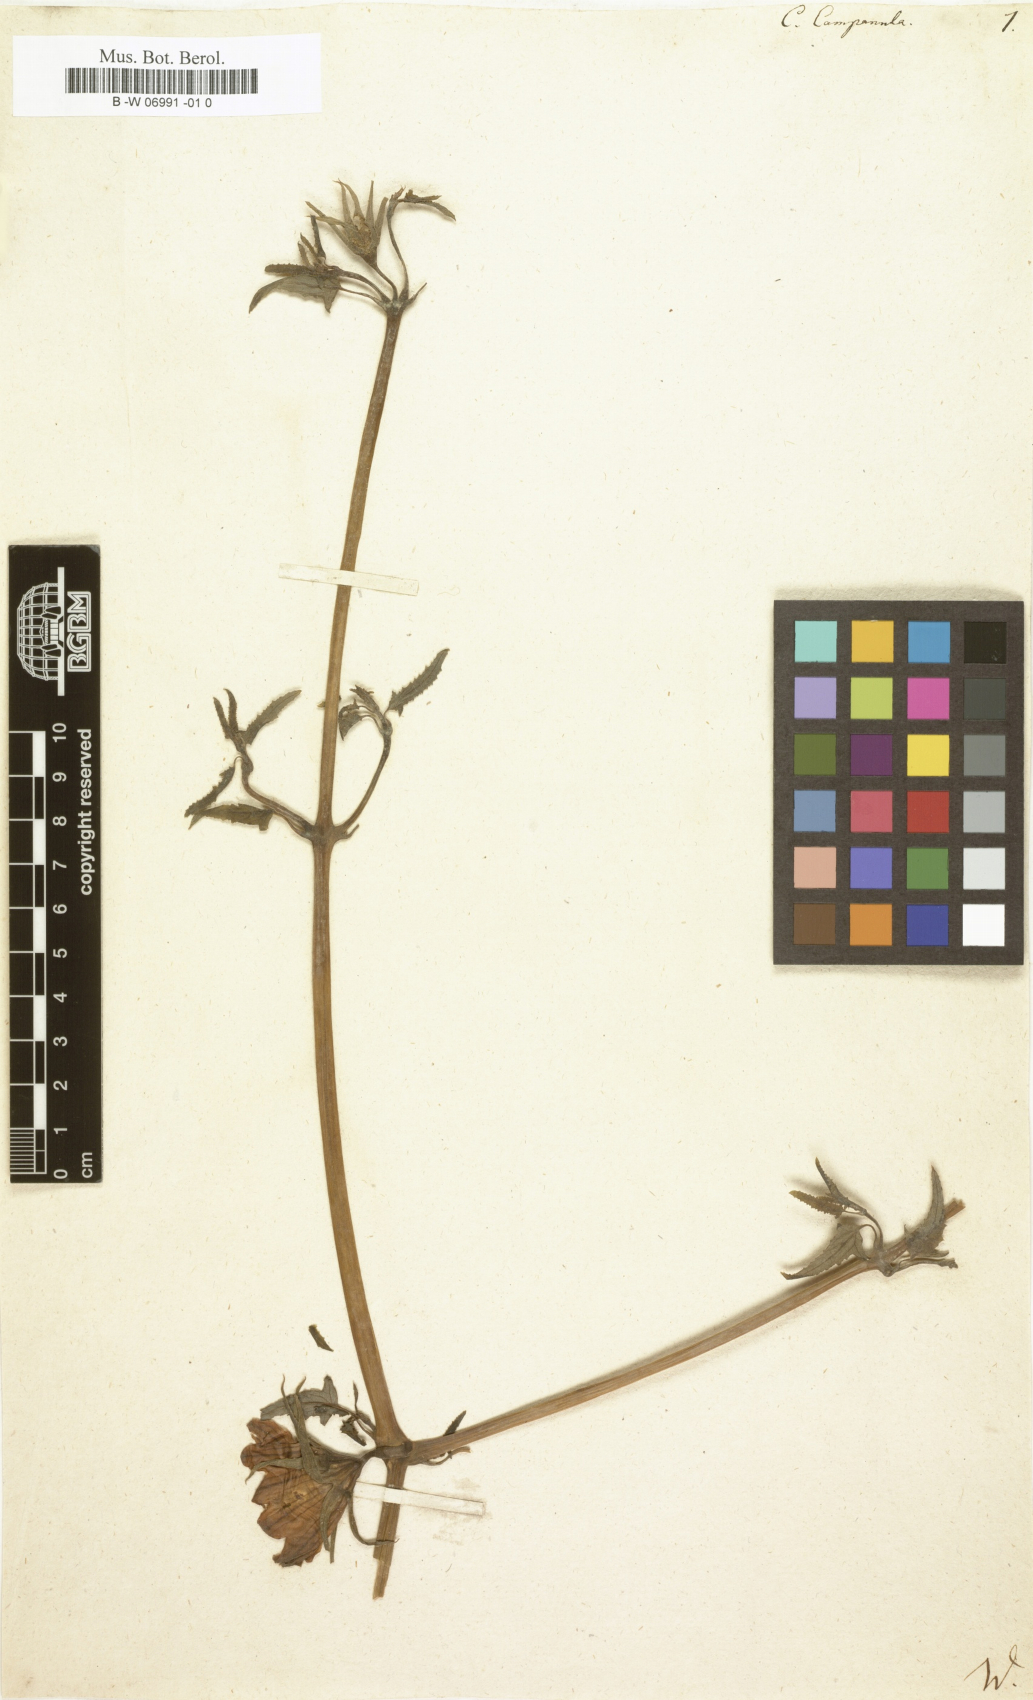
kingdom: Plantae
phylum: Tracheophyta
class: Magnoliopsida
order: Asterales
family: Campanulaceae
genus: Canarina
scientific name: Canarina campanula
